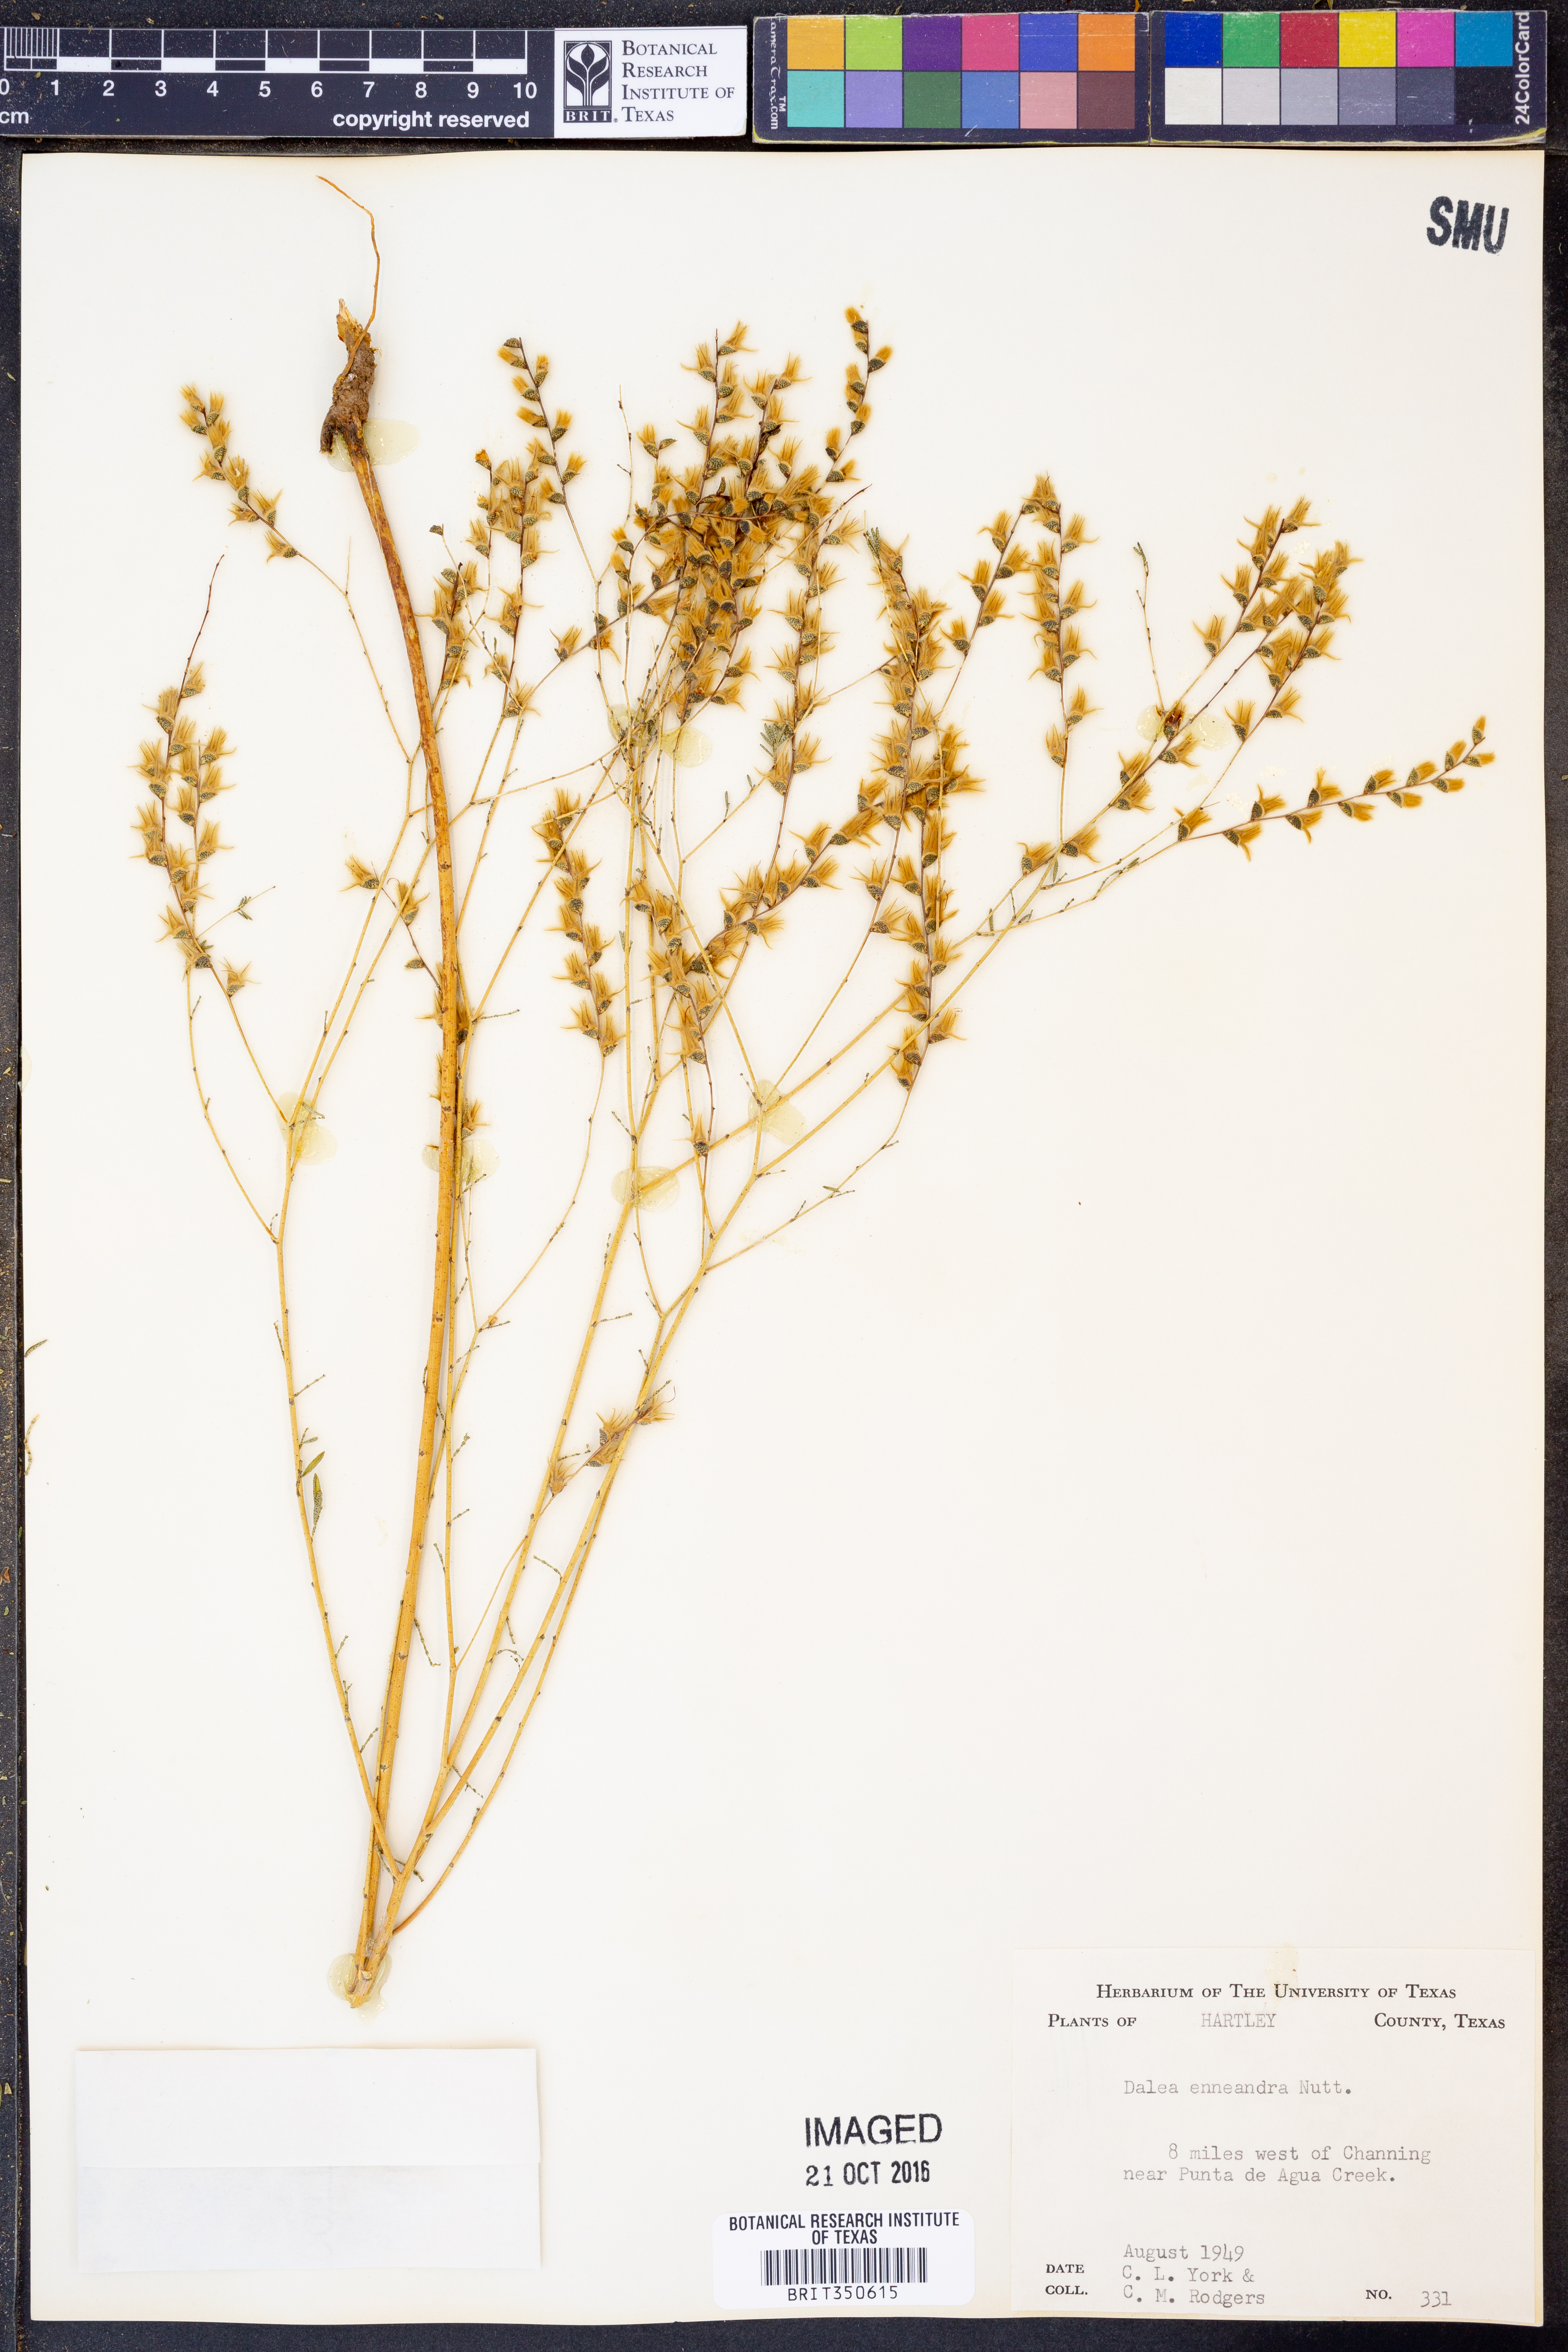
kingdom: Plantae
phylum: Tracheophyta
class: Magnoliopsida
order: Fabales
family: Fabaceae
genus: Dalea
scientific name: Dalea enneandra
